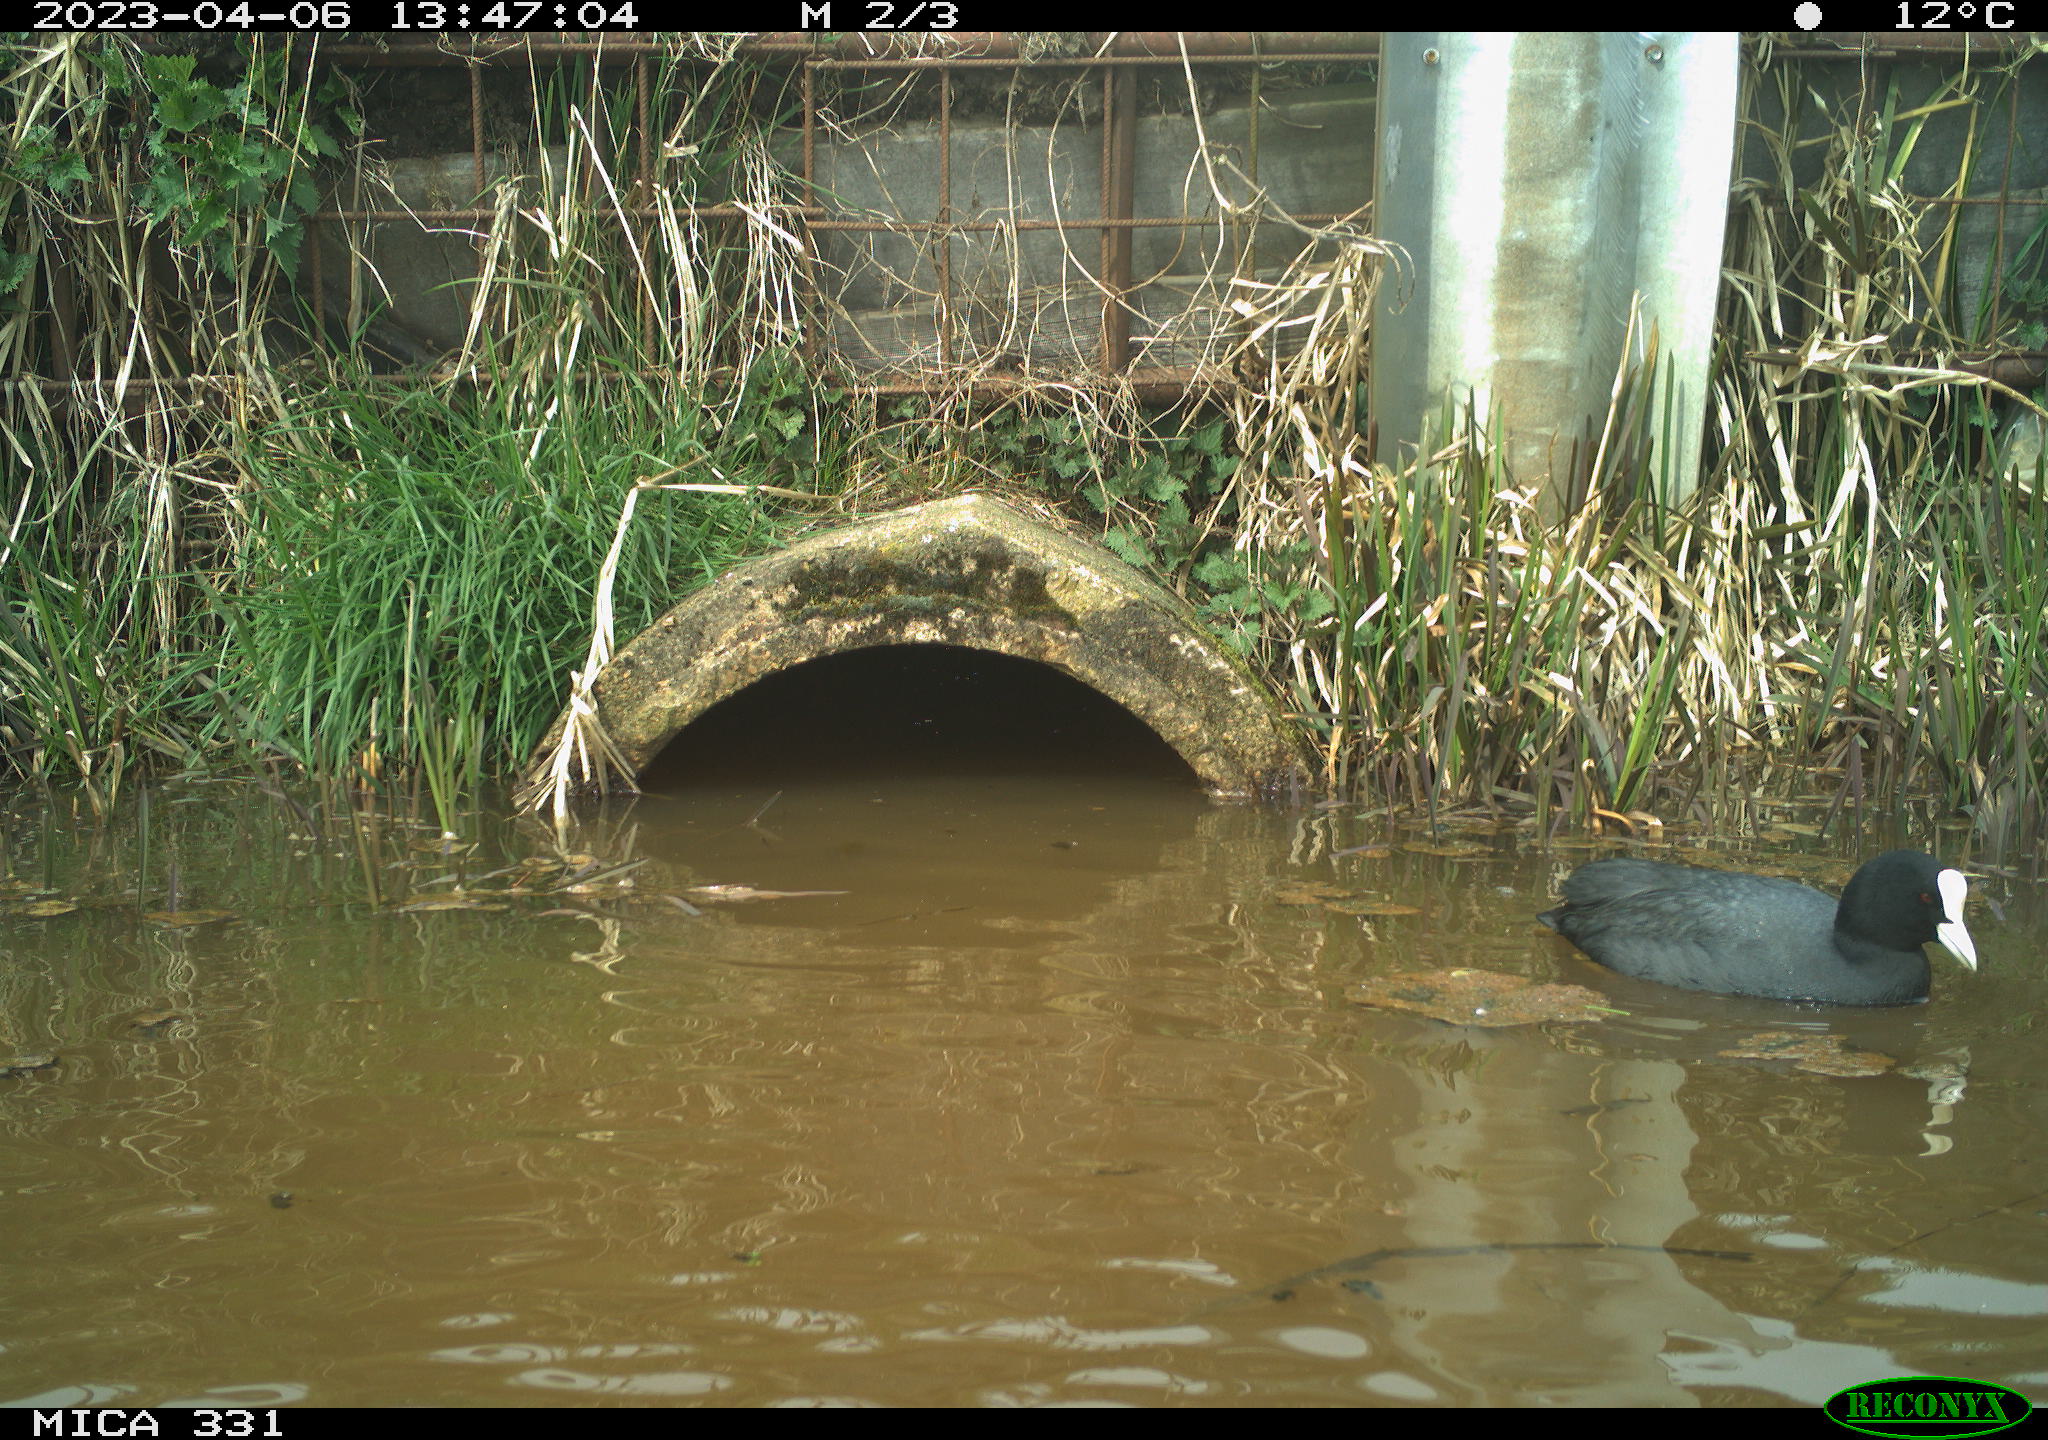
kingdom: Animalia
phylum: Chordata
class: Aves
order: Gruiformes
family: Rallidae
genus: Fulica
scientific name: Fulica atra
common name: Eurasian coot
